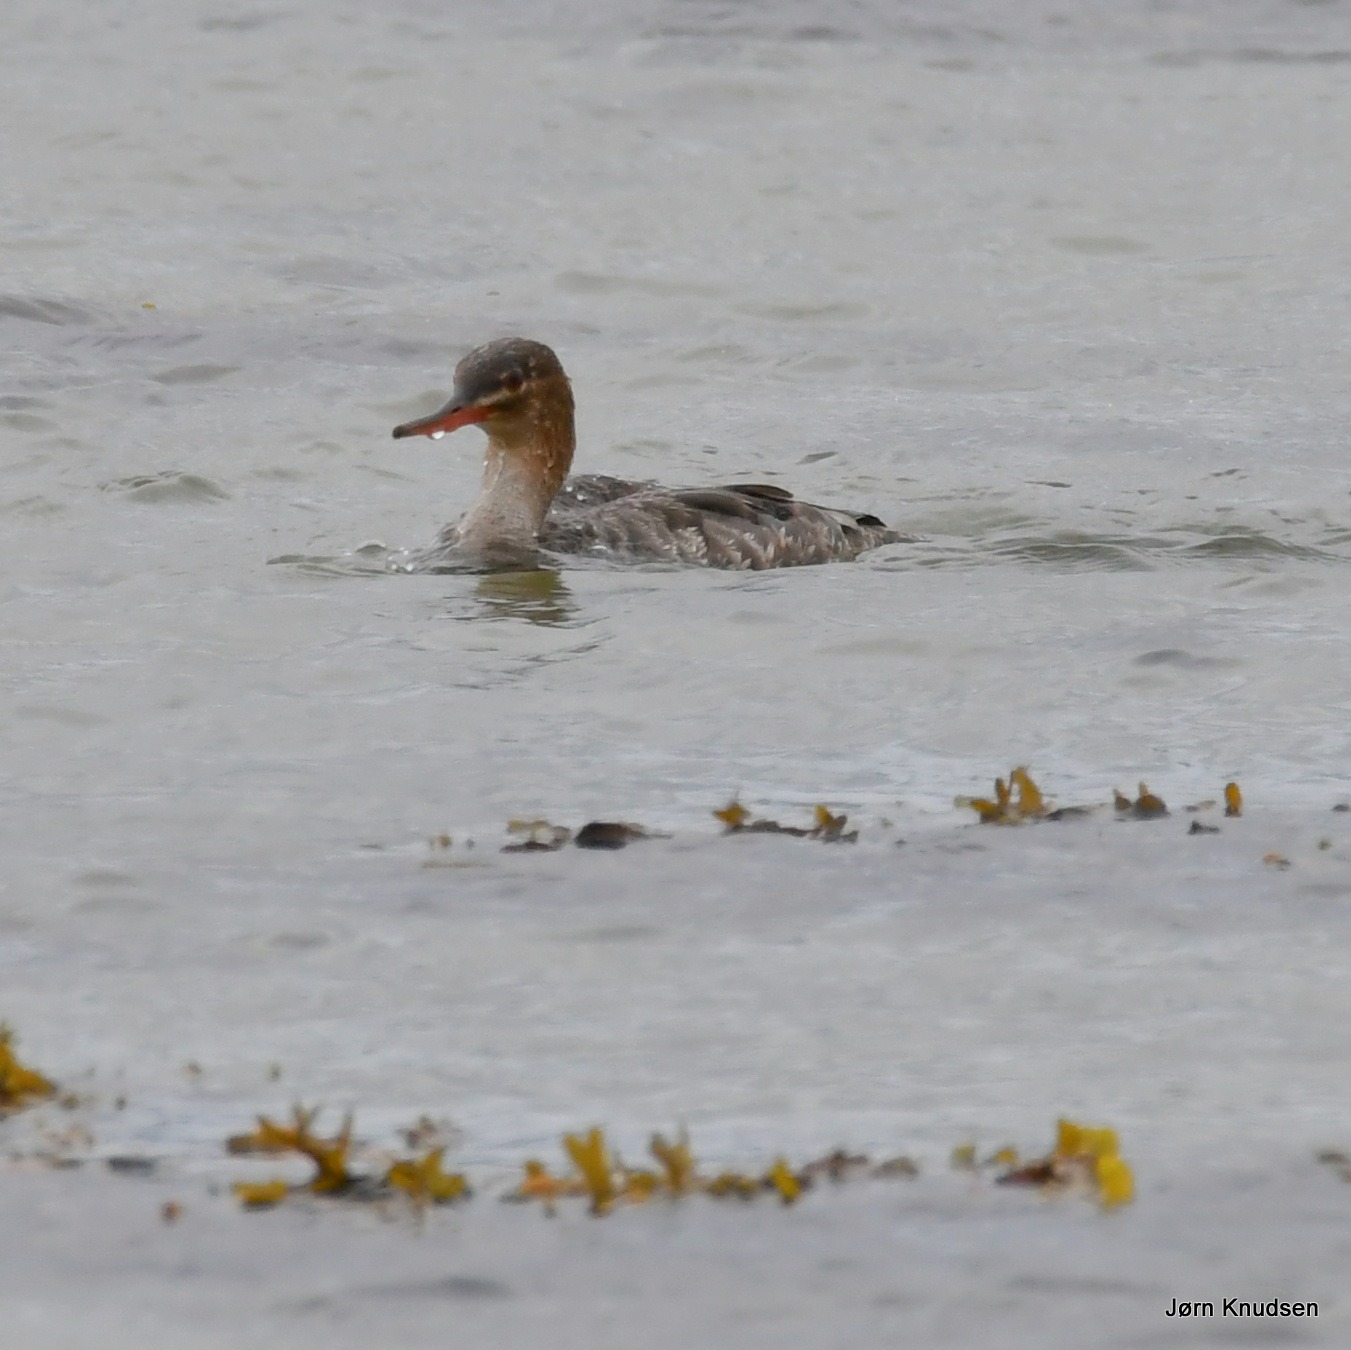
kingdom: Animalia
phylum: Chordata
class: Aves
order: Anseriformes
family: Anatidae
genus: Mergus
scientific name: Mergus serrator
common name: Toppet skallesluger
